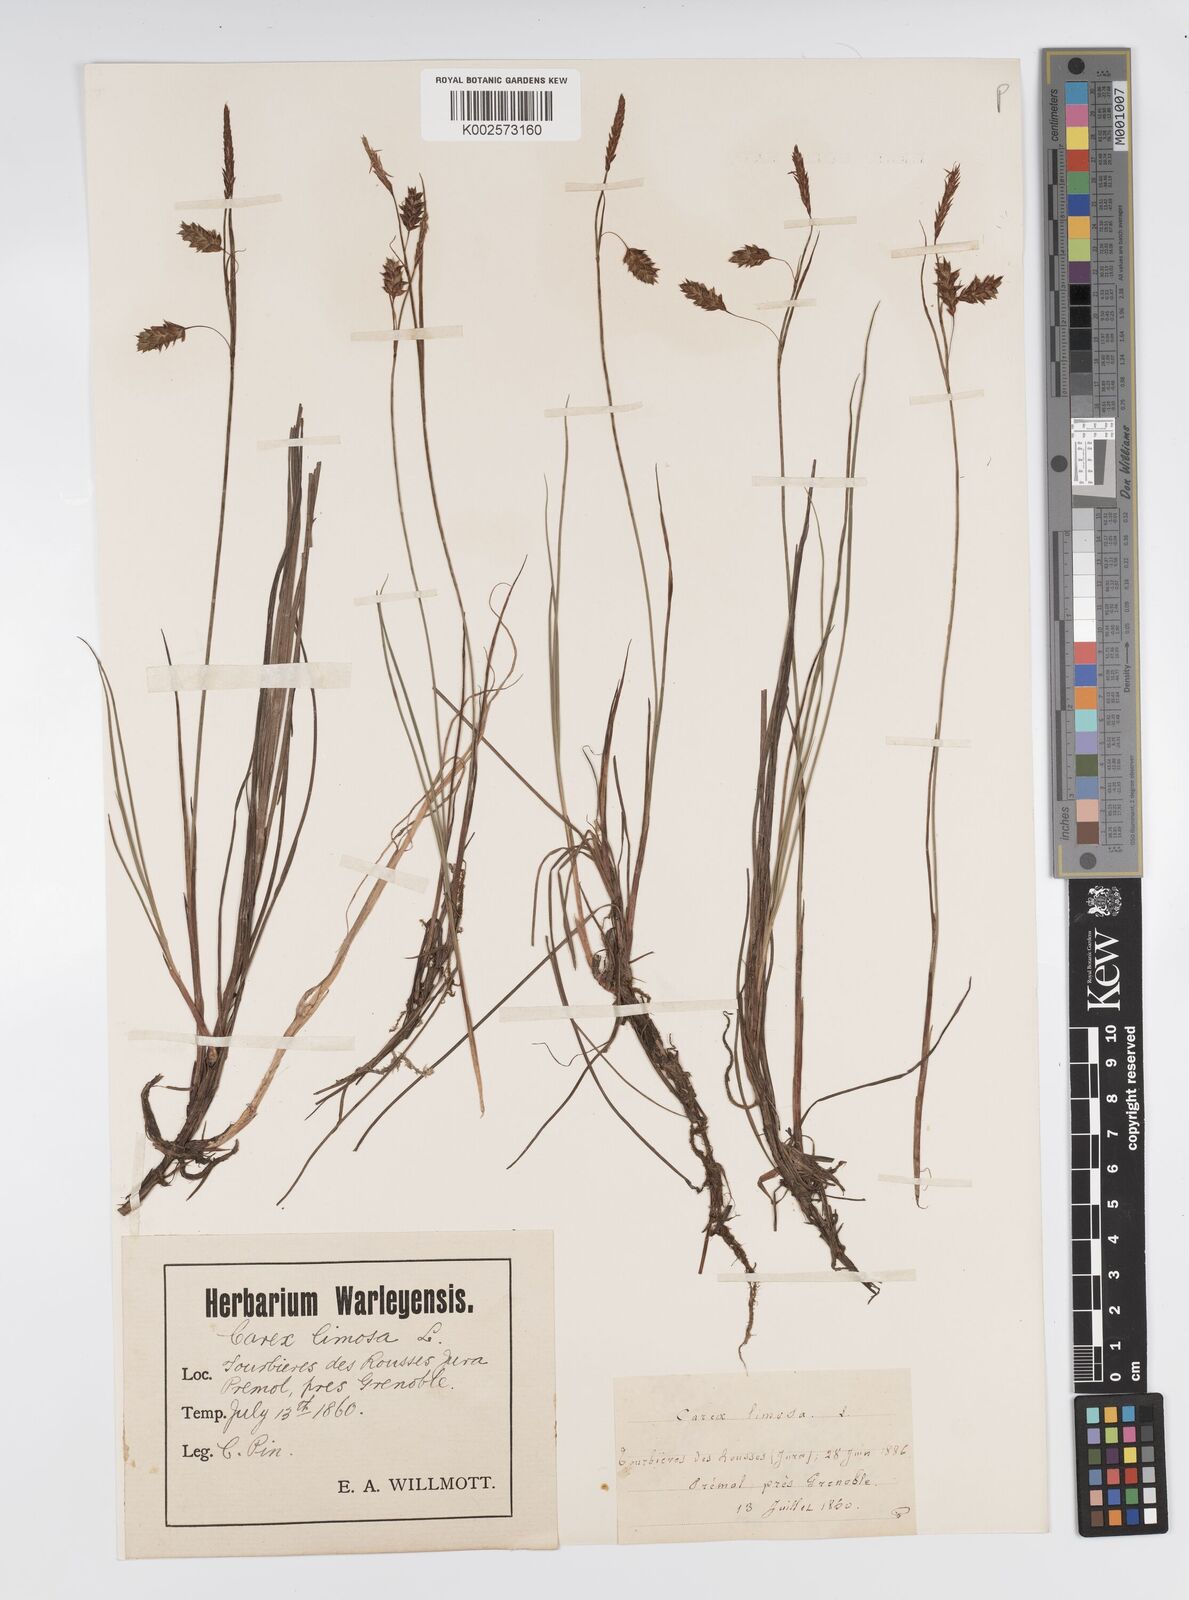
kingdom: Plantae
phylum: Tracheophyta
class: Liliopsida
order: Poales
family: Cyperaceae
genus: Carex
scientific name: Carex limosa
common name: Bog sedge
